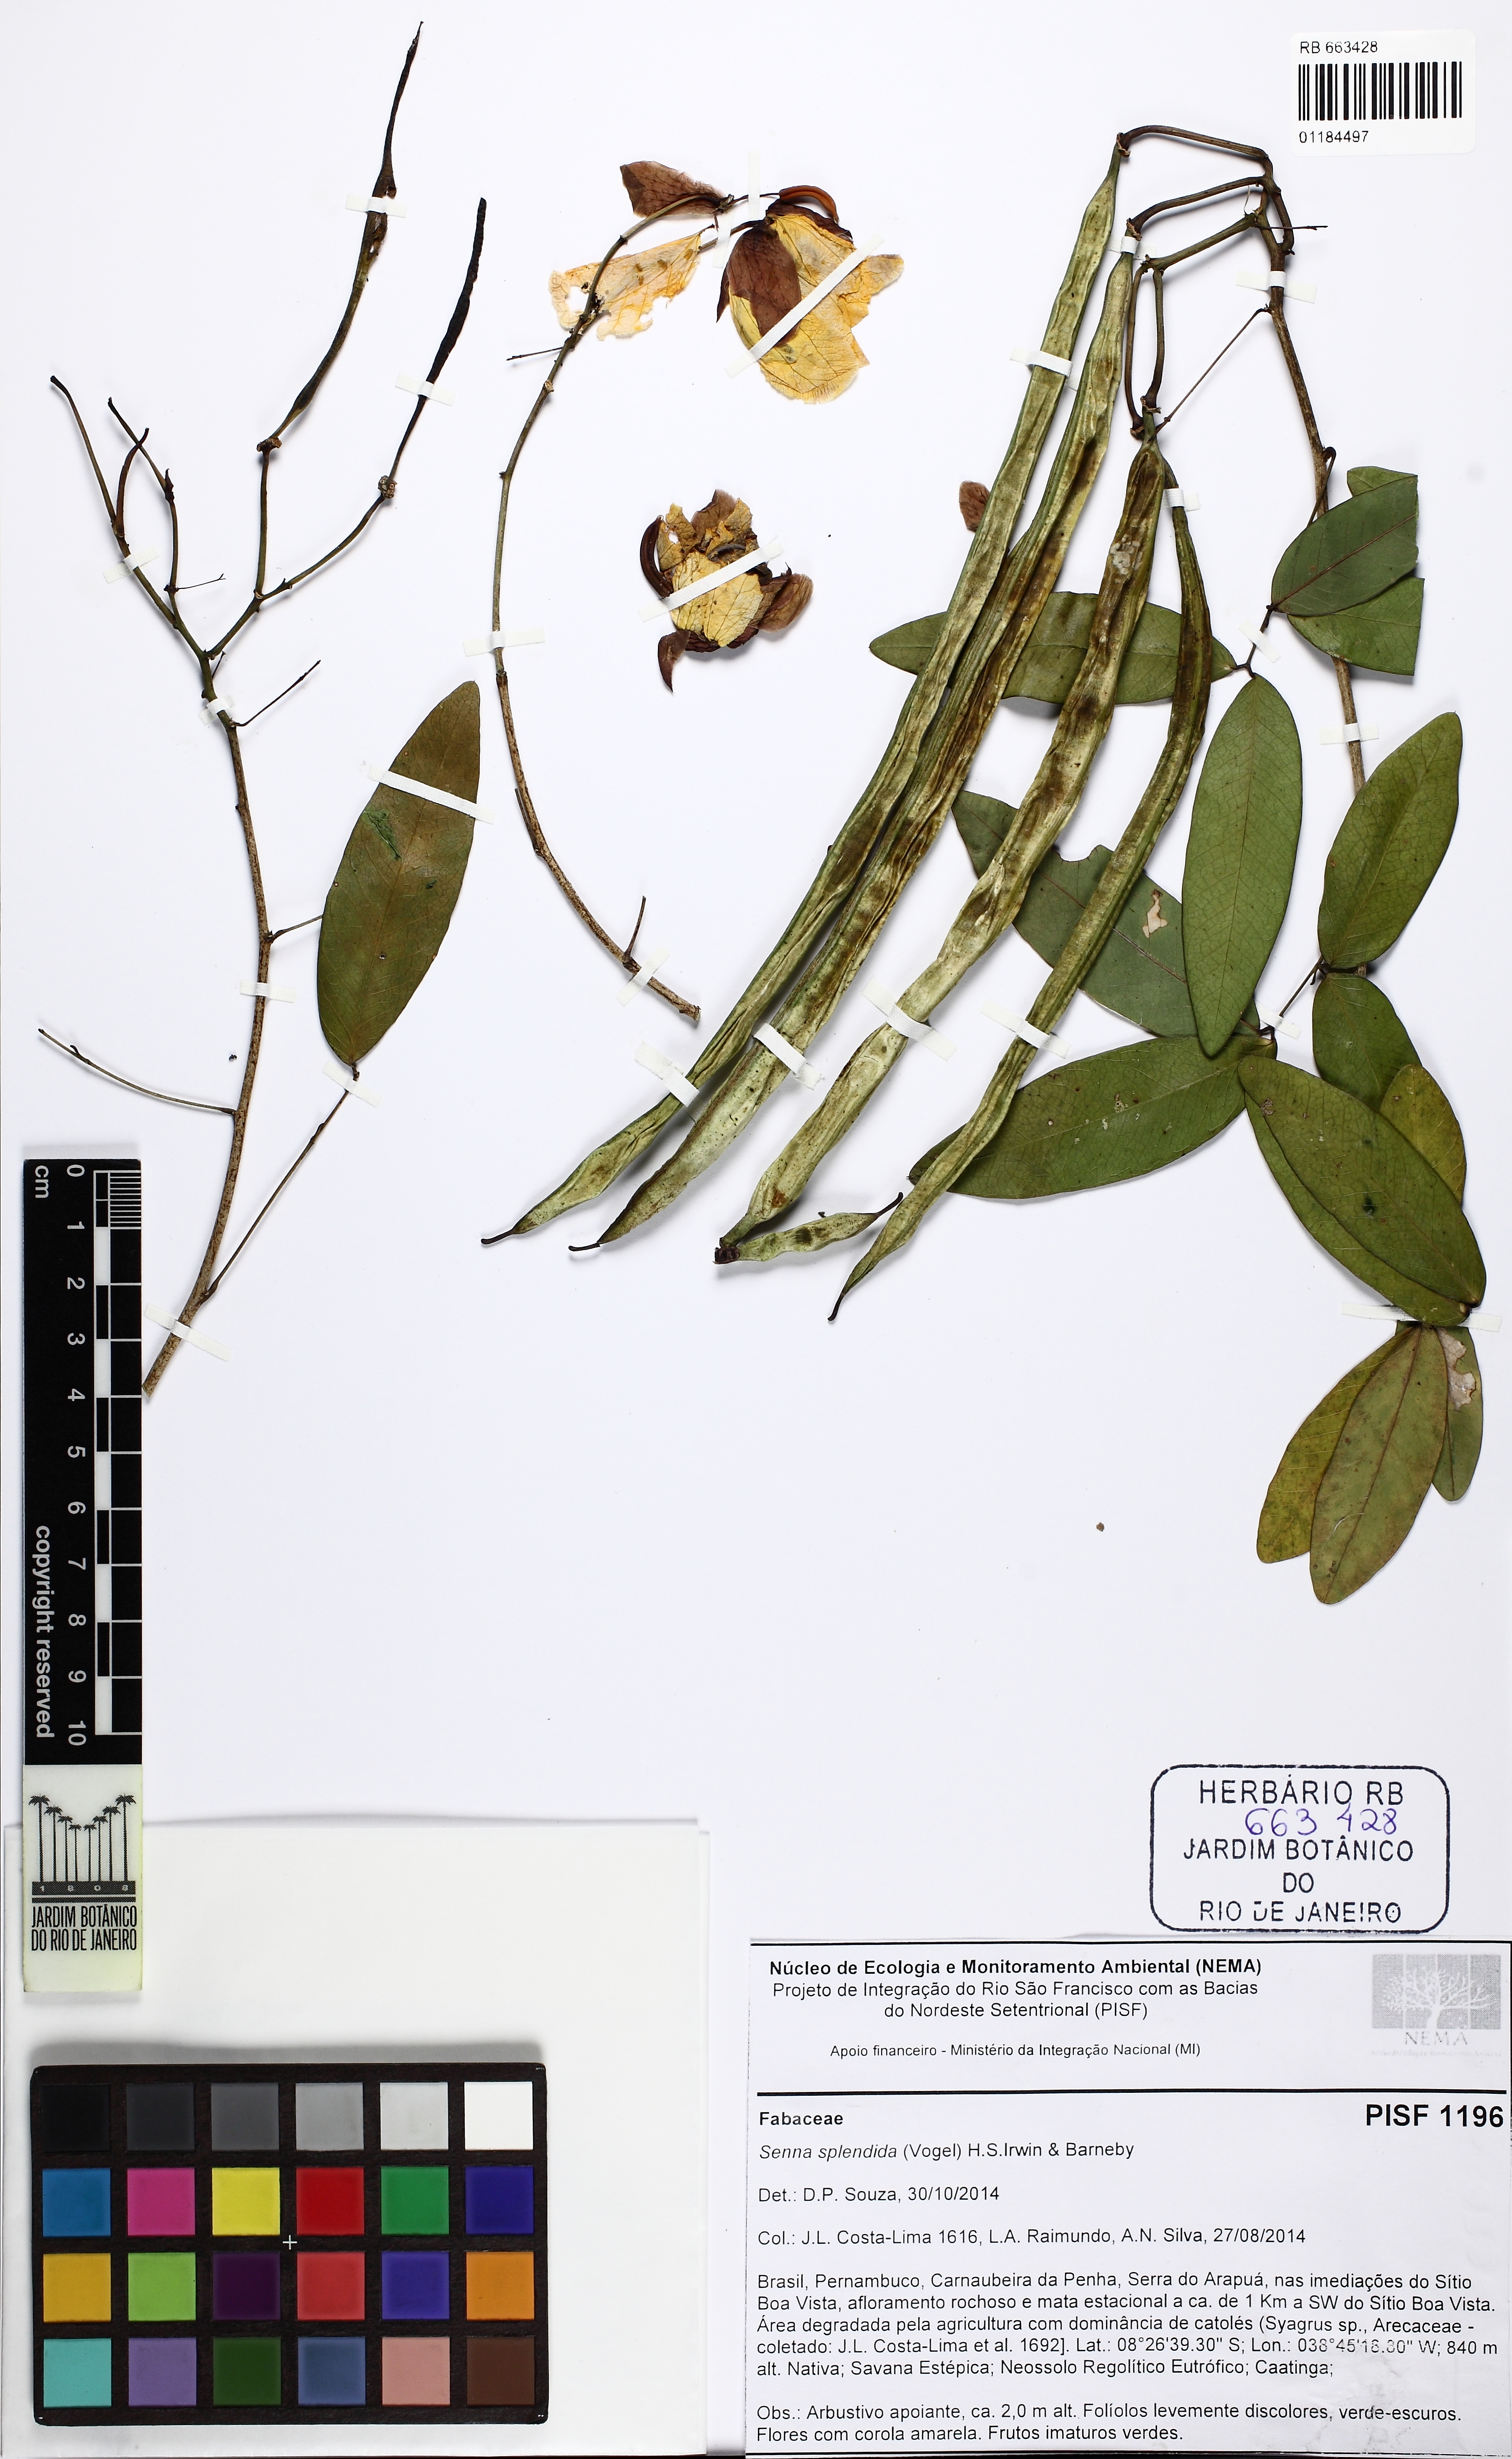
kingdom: Plantae
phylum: Tracheophyta
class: Magnoliopsida
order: Fabales
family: Fabaceae
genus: Senna
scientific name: Senna splendida
